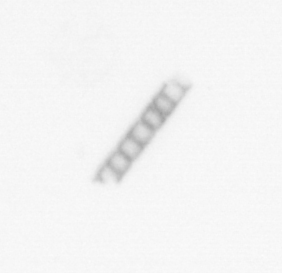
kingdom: Chromista
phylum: Ochrophyta
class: Bacillariophyceae
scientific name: Bacillariophyceae
